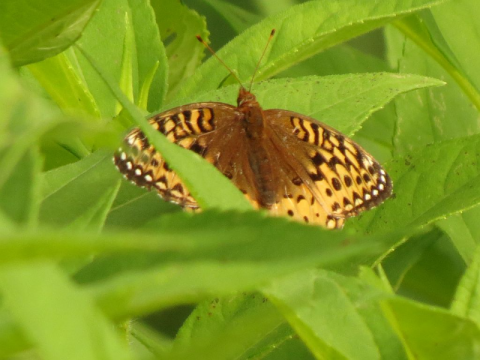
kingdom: Animalia
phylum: Arthropoda
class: Insecta
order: Lepidoptera
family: Nymphalidae
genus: Speyeria
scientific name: Speyeria cybele
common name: Great Spangled Fritillary
